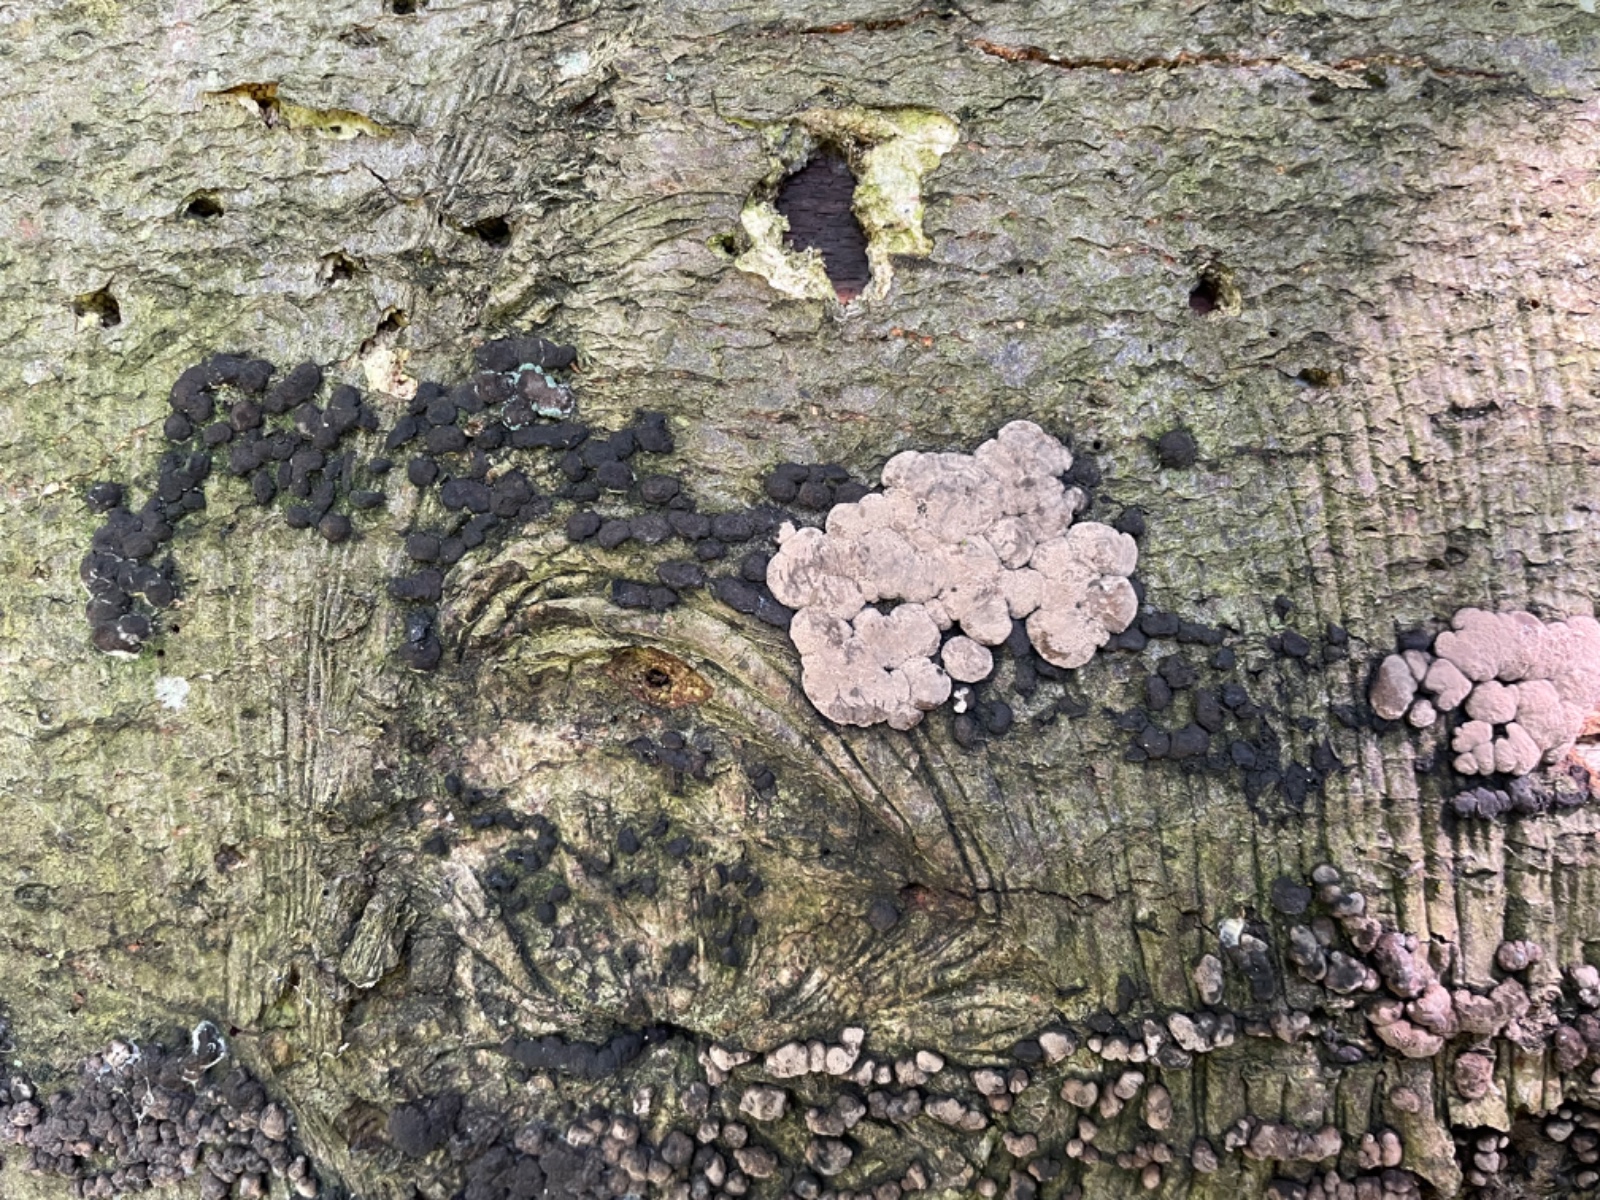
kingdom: Fungi
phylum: Ascomycota
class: Sordariomycetes
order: Xylariales
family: Hypoxylaceae
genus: Jackrogersella
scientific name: Jackrogersella cohaerens
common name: sammenflydende kulbær
